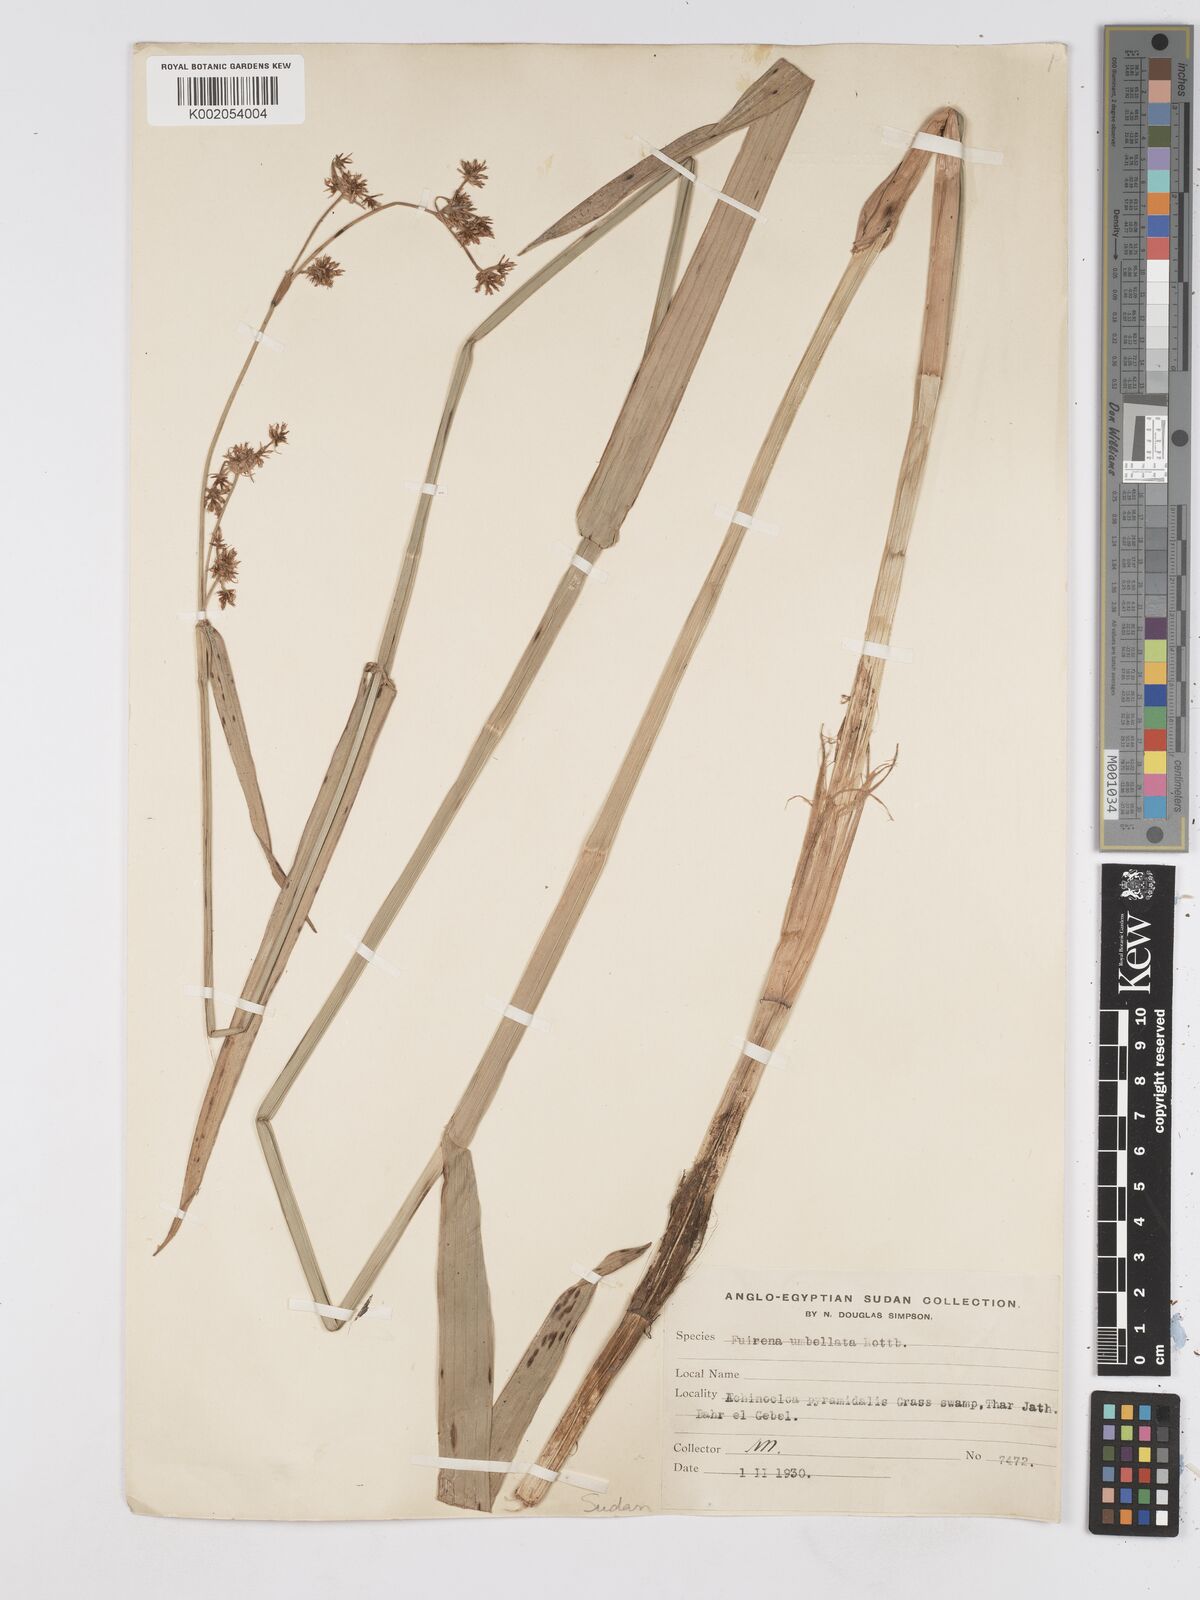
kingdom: Plantae
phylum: Tracheophyta
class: Liliopsida
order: Poales
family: Cyperaceae
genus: Fuirena
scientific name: Fuirena umbellata
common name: Yefen
